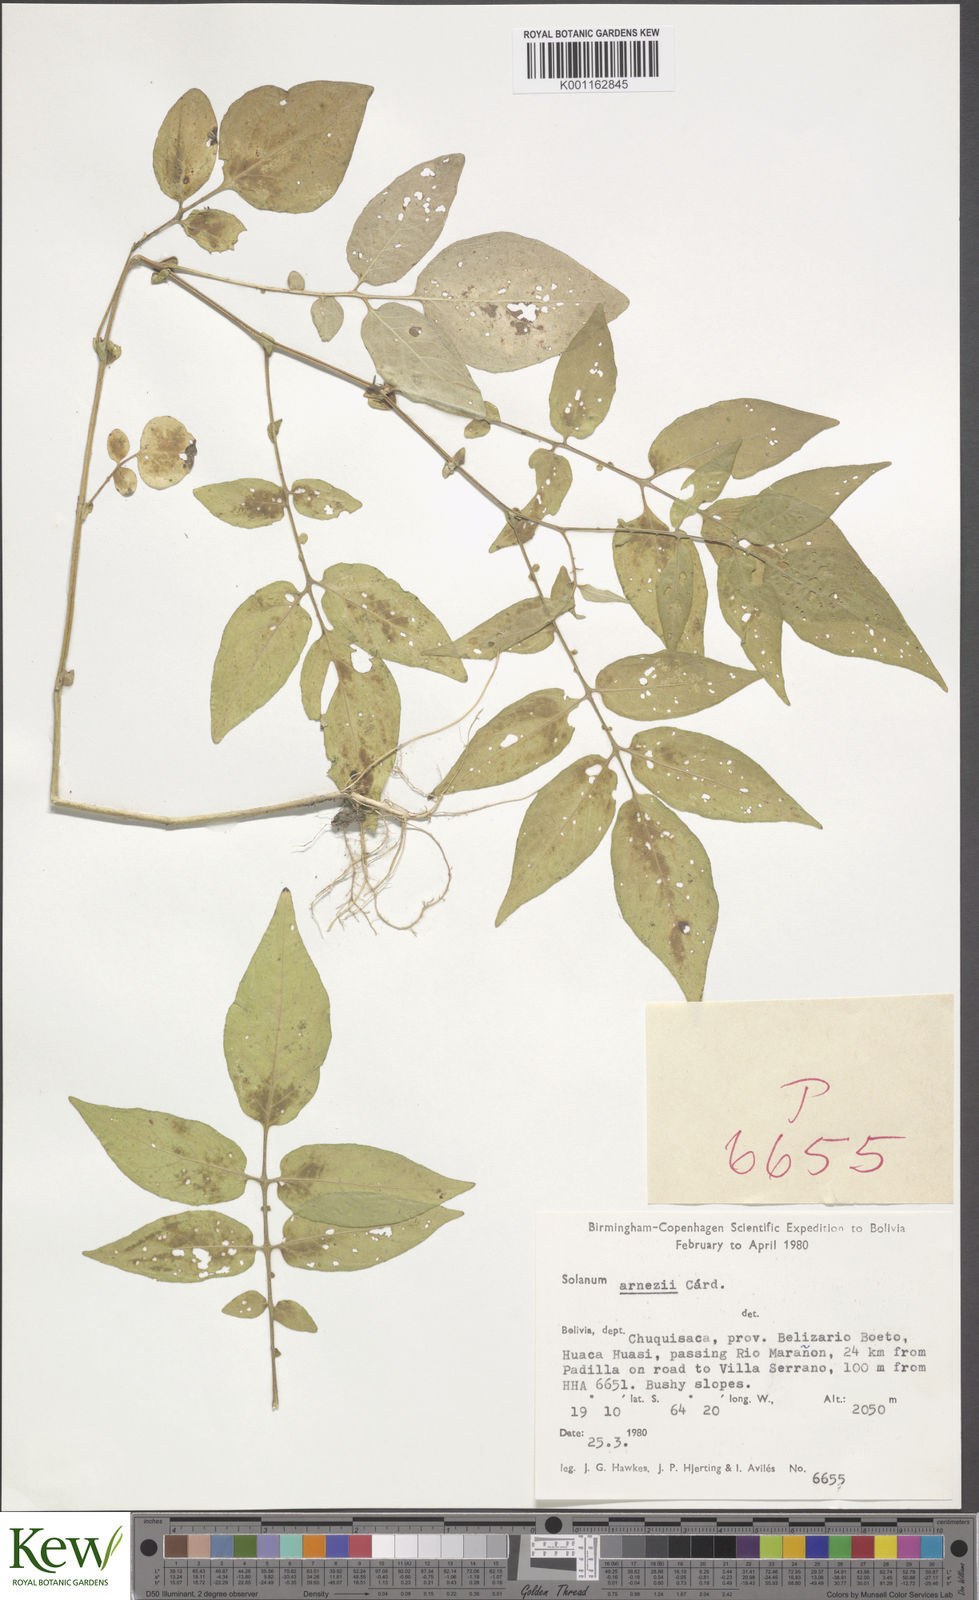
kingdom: Plantae
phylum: Tracheophyta
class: Magnoliopsida
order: Solanales
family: Solanaceae
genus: Solanum
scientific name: Solanum
